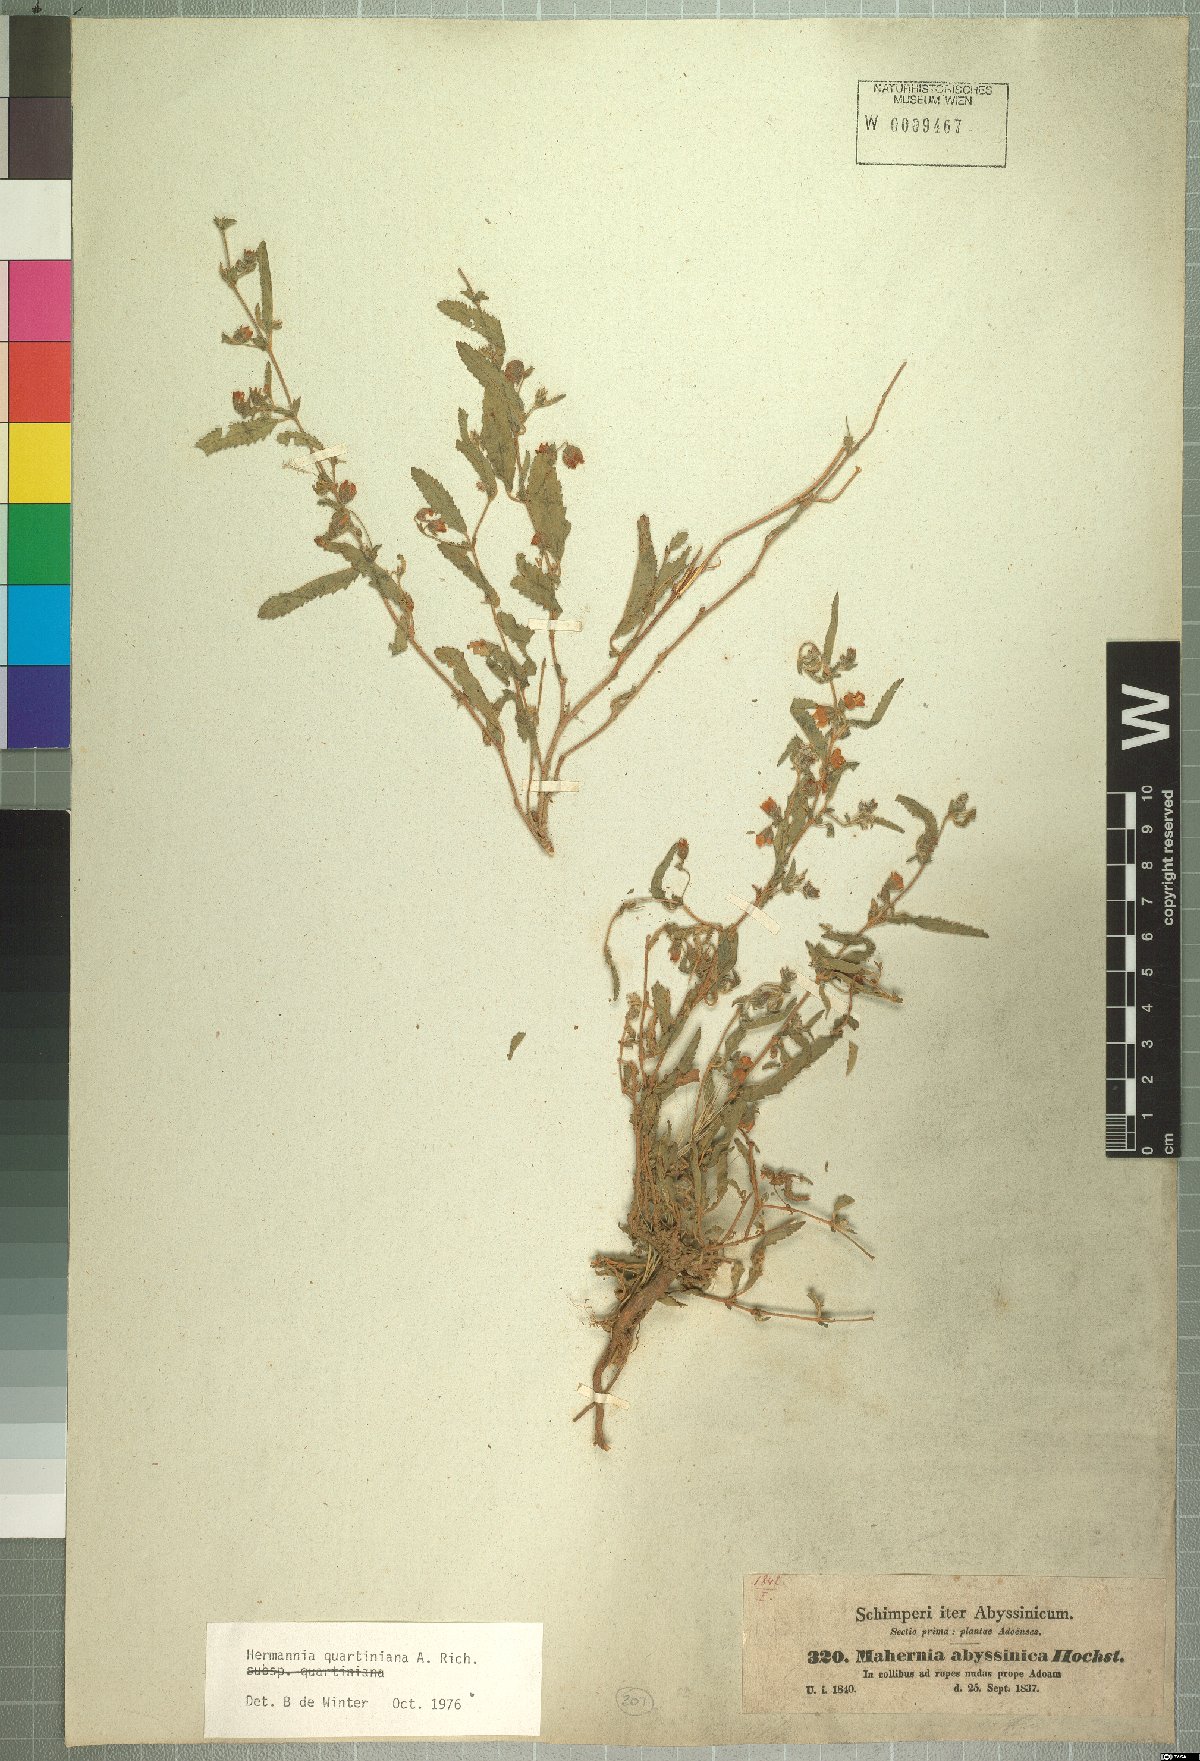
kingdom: Plantae
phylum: Tracheophyta
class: Magnoliopsida
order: Malvales
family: Malvaceae
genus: Hermannia
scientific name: Hermannia quartiniana
